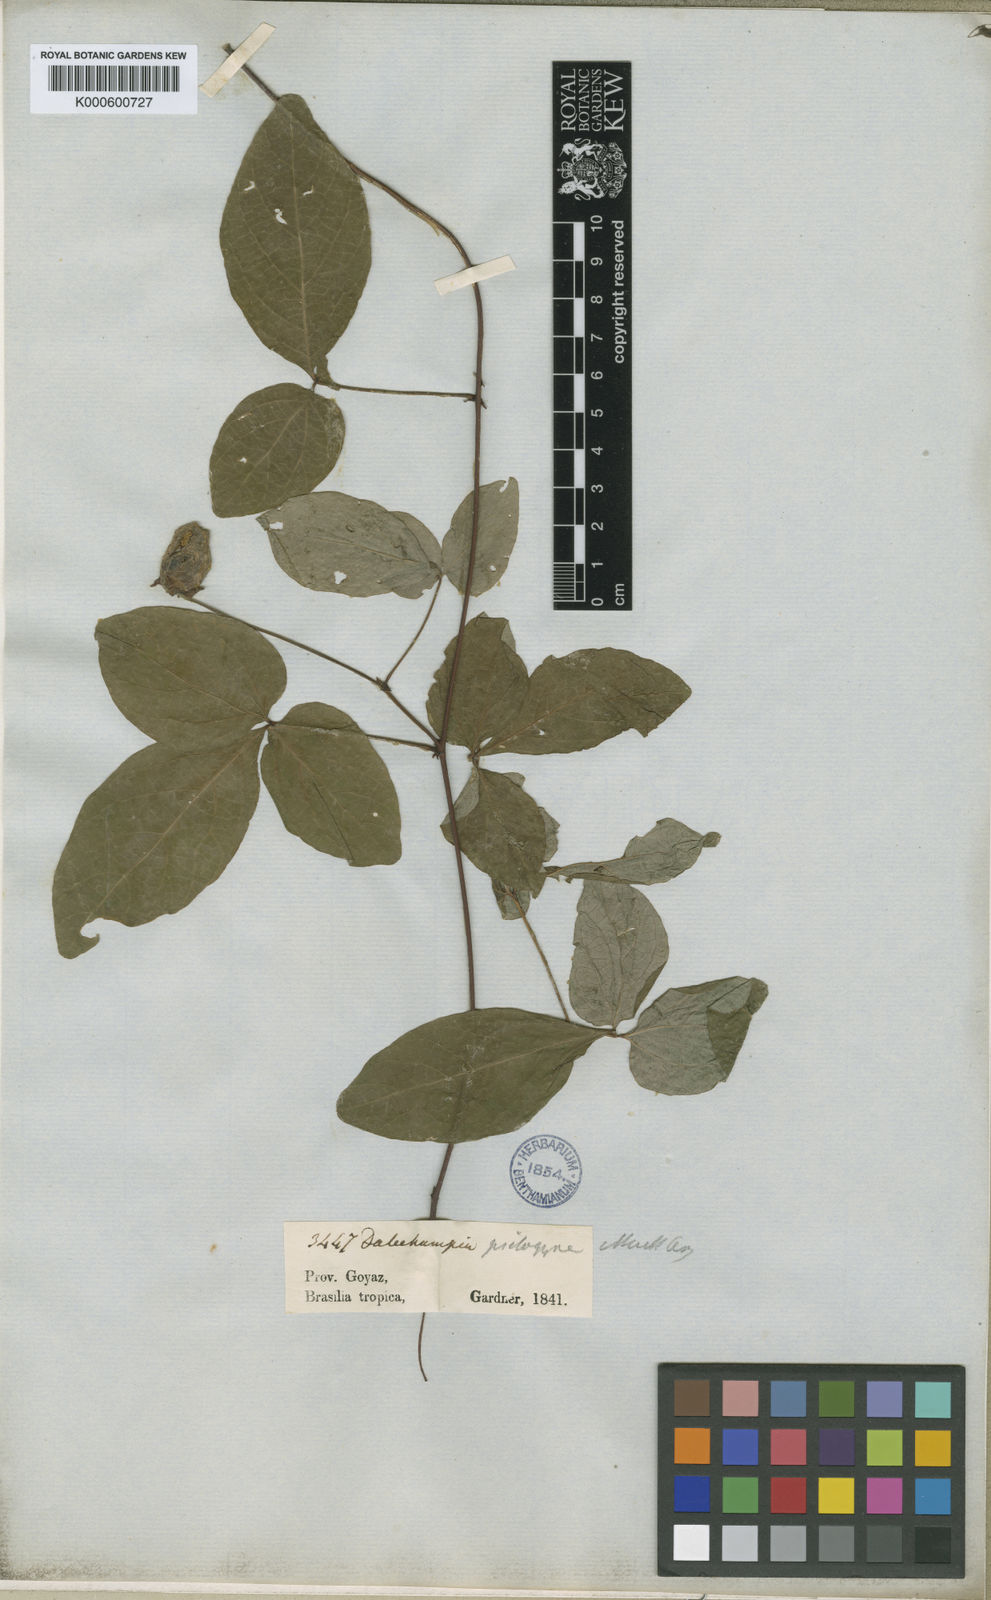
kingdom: Plantae
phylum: Tracheophyta
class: Magnoliopsida
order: Malpighiales
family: Euphorbiaceae
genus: Dalechampia
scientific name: Dalechampia
